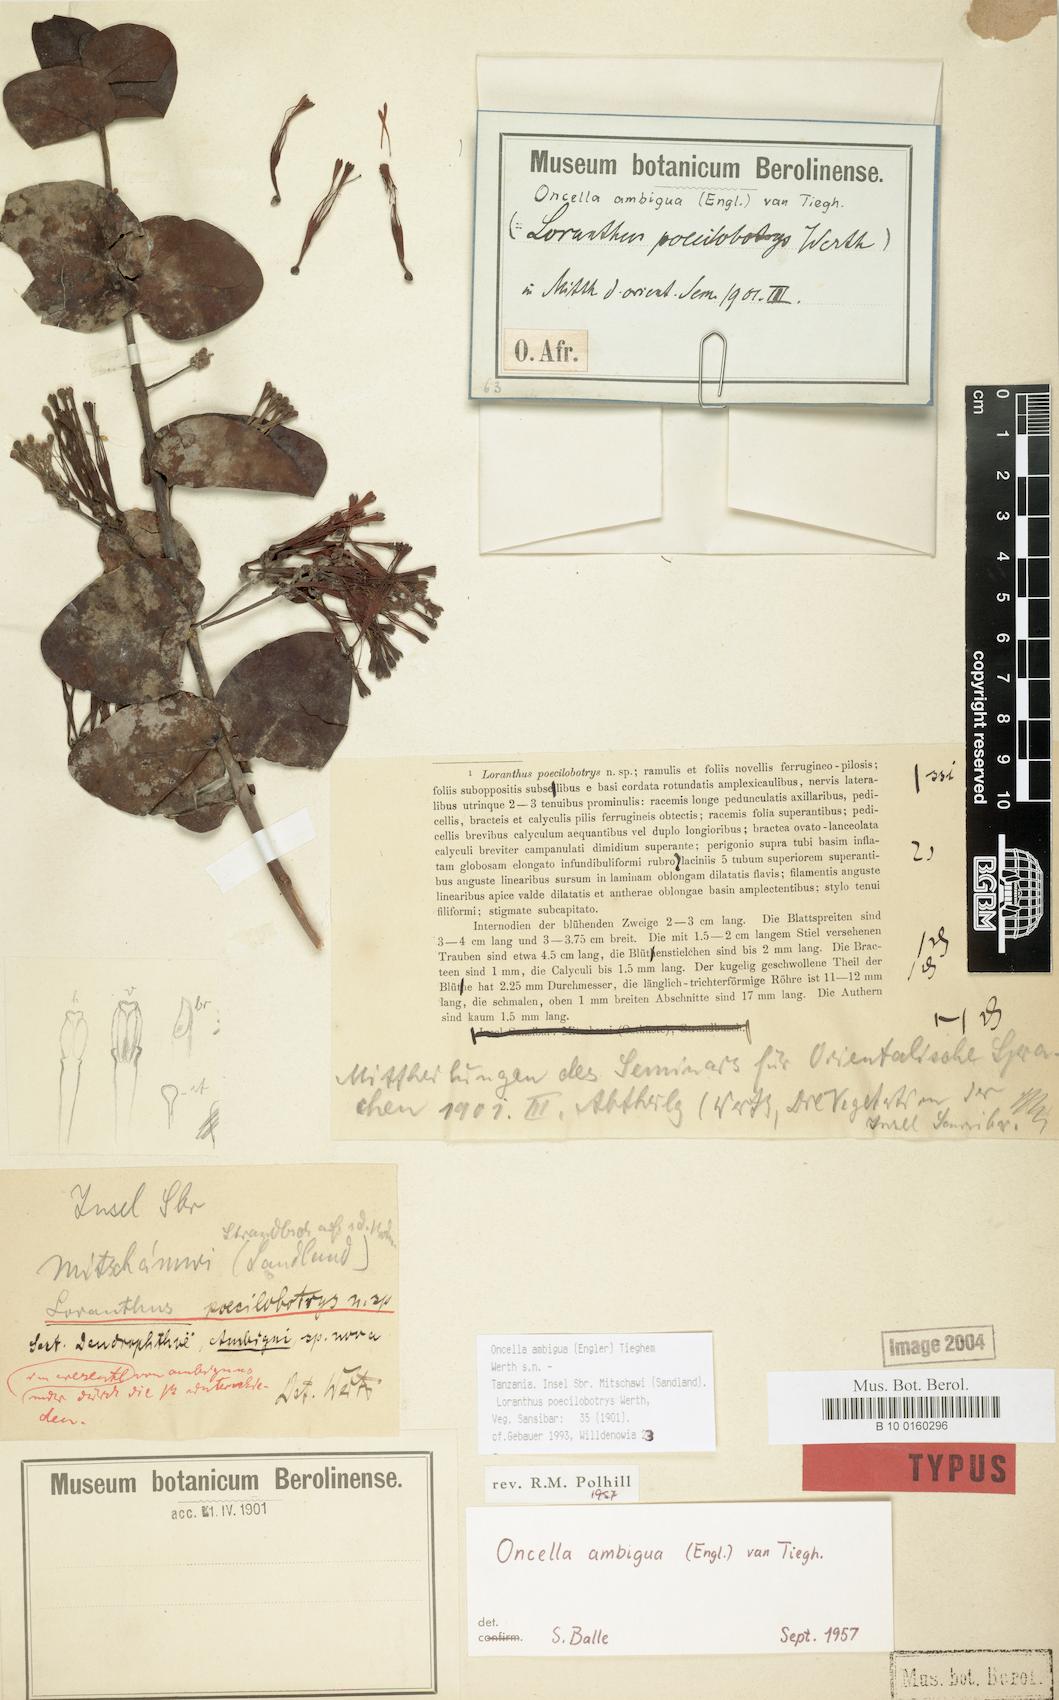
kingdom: Plantae
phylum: Tracheophyta
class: Magnoliopsida
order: Santalales
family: Loranthaceae
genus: Oncella
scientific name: Oncella ambigua
